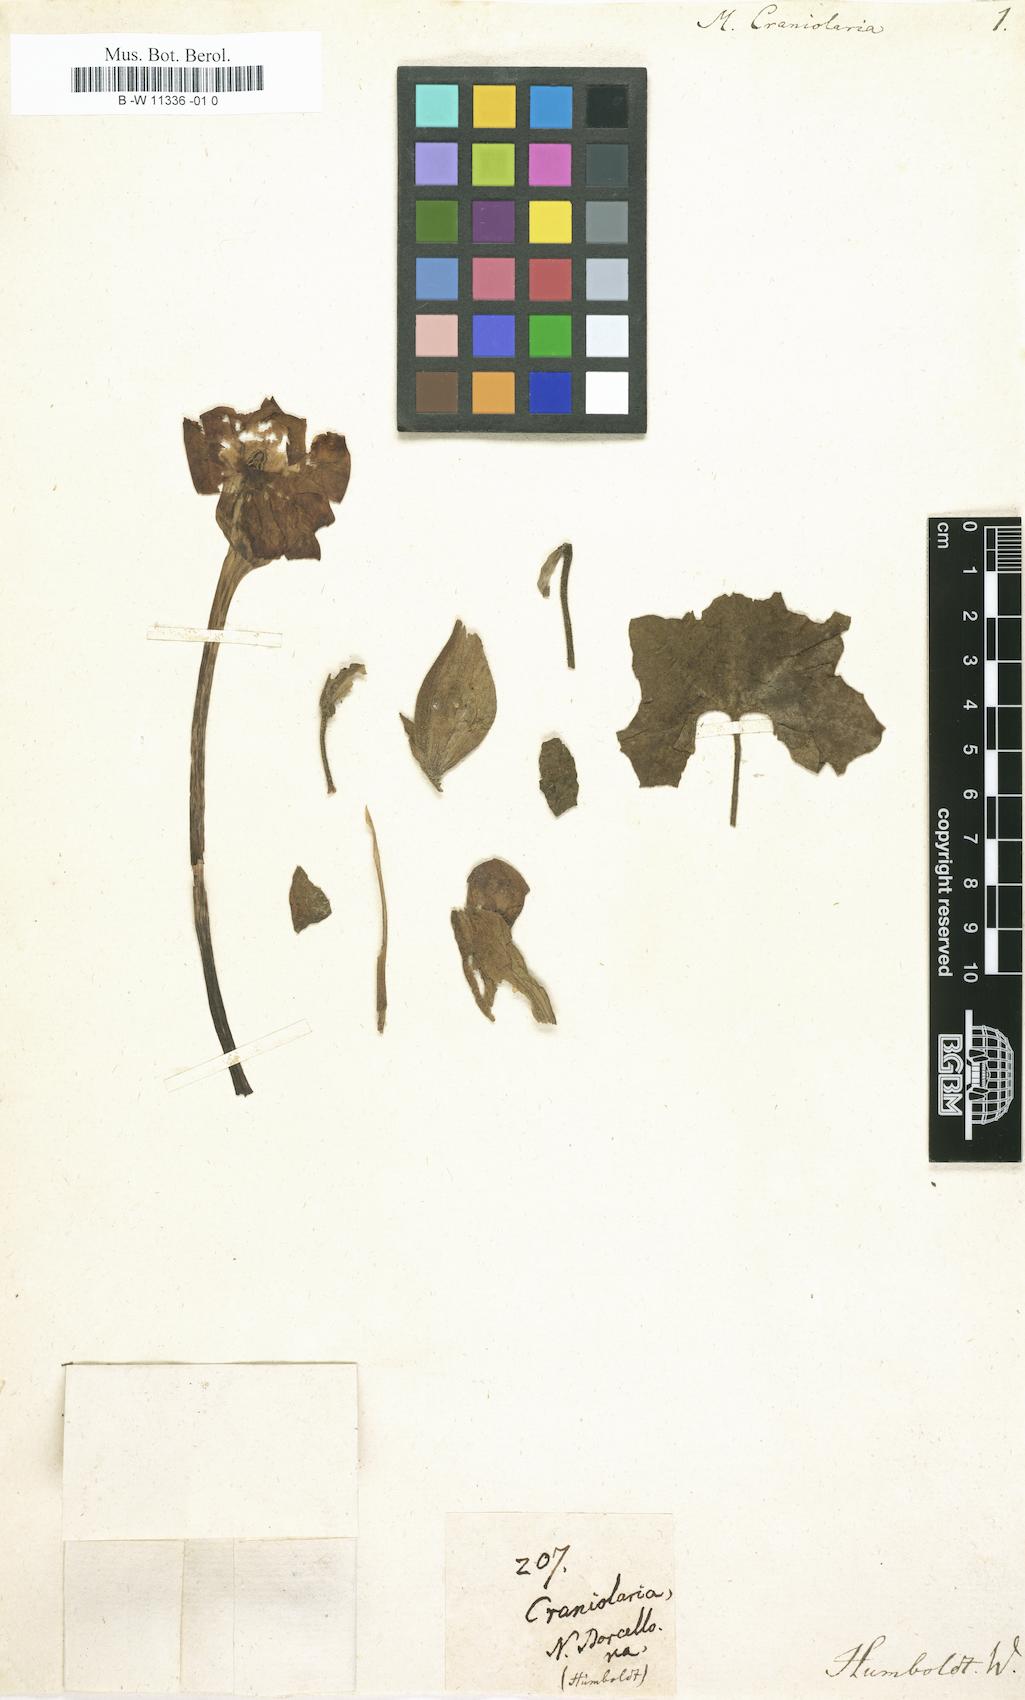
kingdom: Plantae
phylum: Tracheophyta
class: Magnoliopsida
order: Lamiales
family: Martyniaceae
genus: Craniolaria
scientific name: Craniolaria annua
